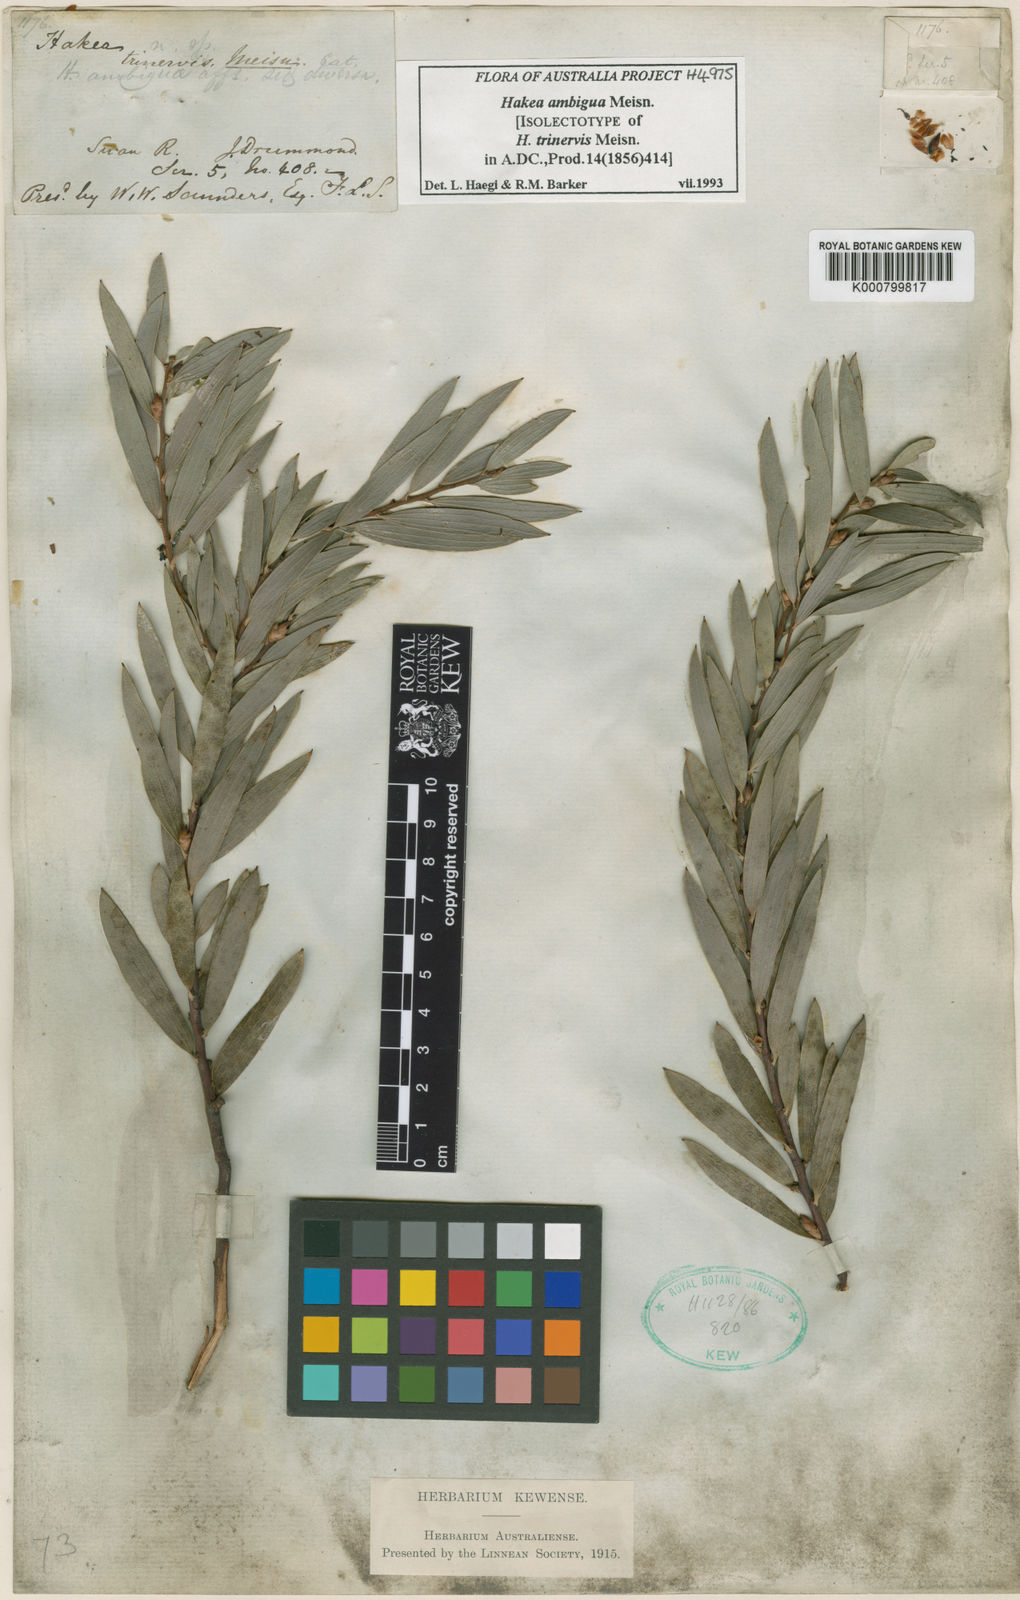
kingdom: Plantae
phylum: Tracheophyta
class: Magnoliopsida
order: Proteales
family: Proteaceae
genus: Hakea
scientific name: Hakea ambigua
